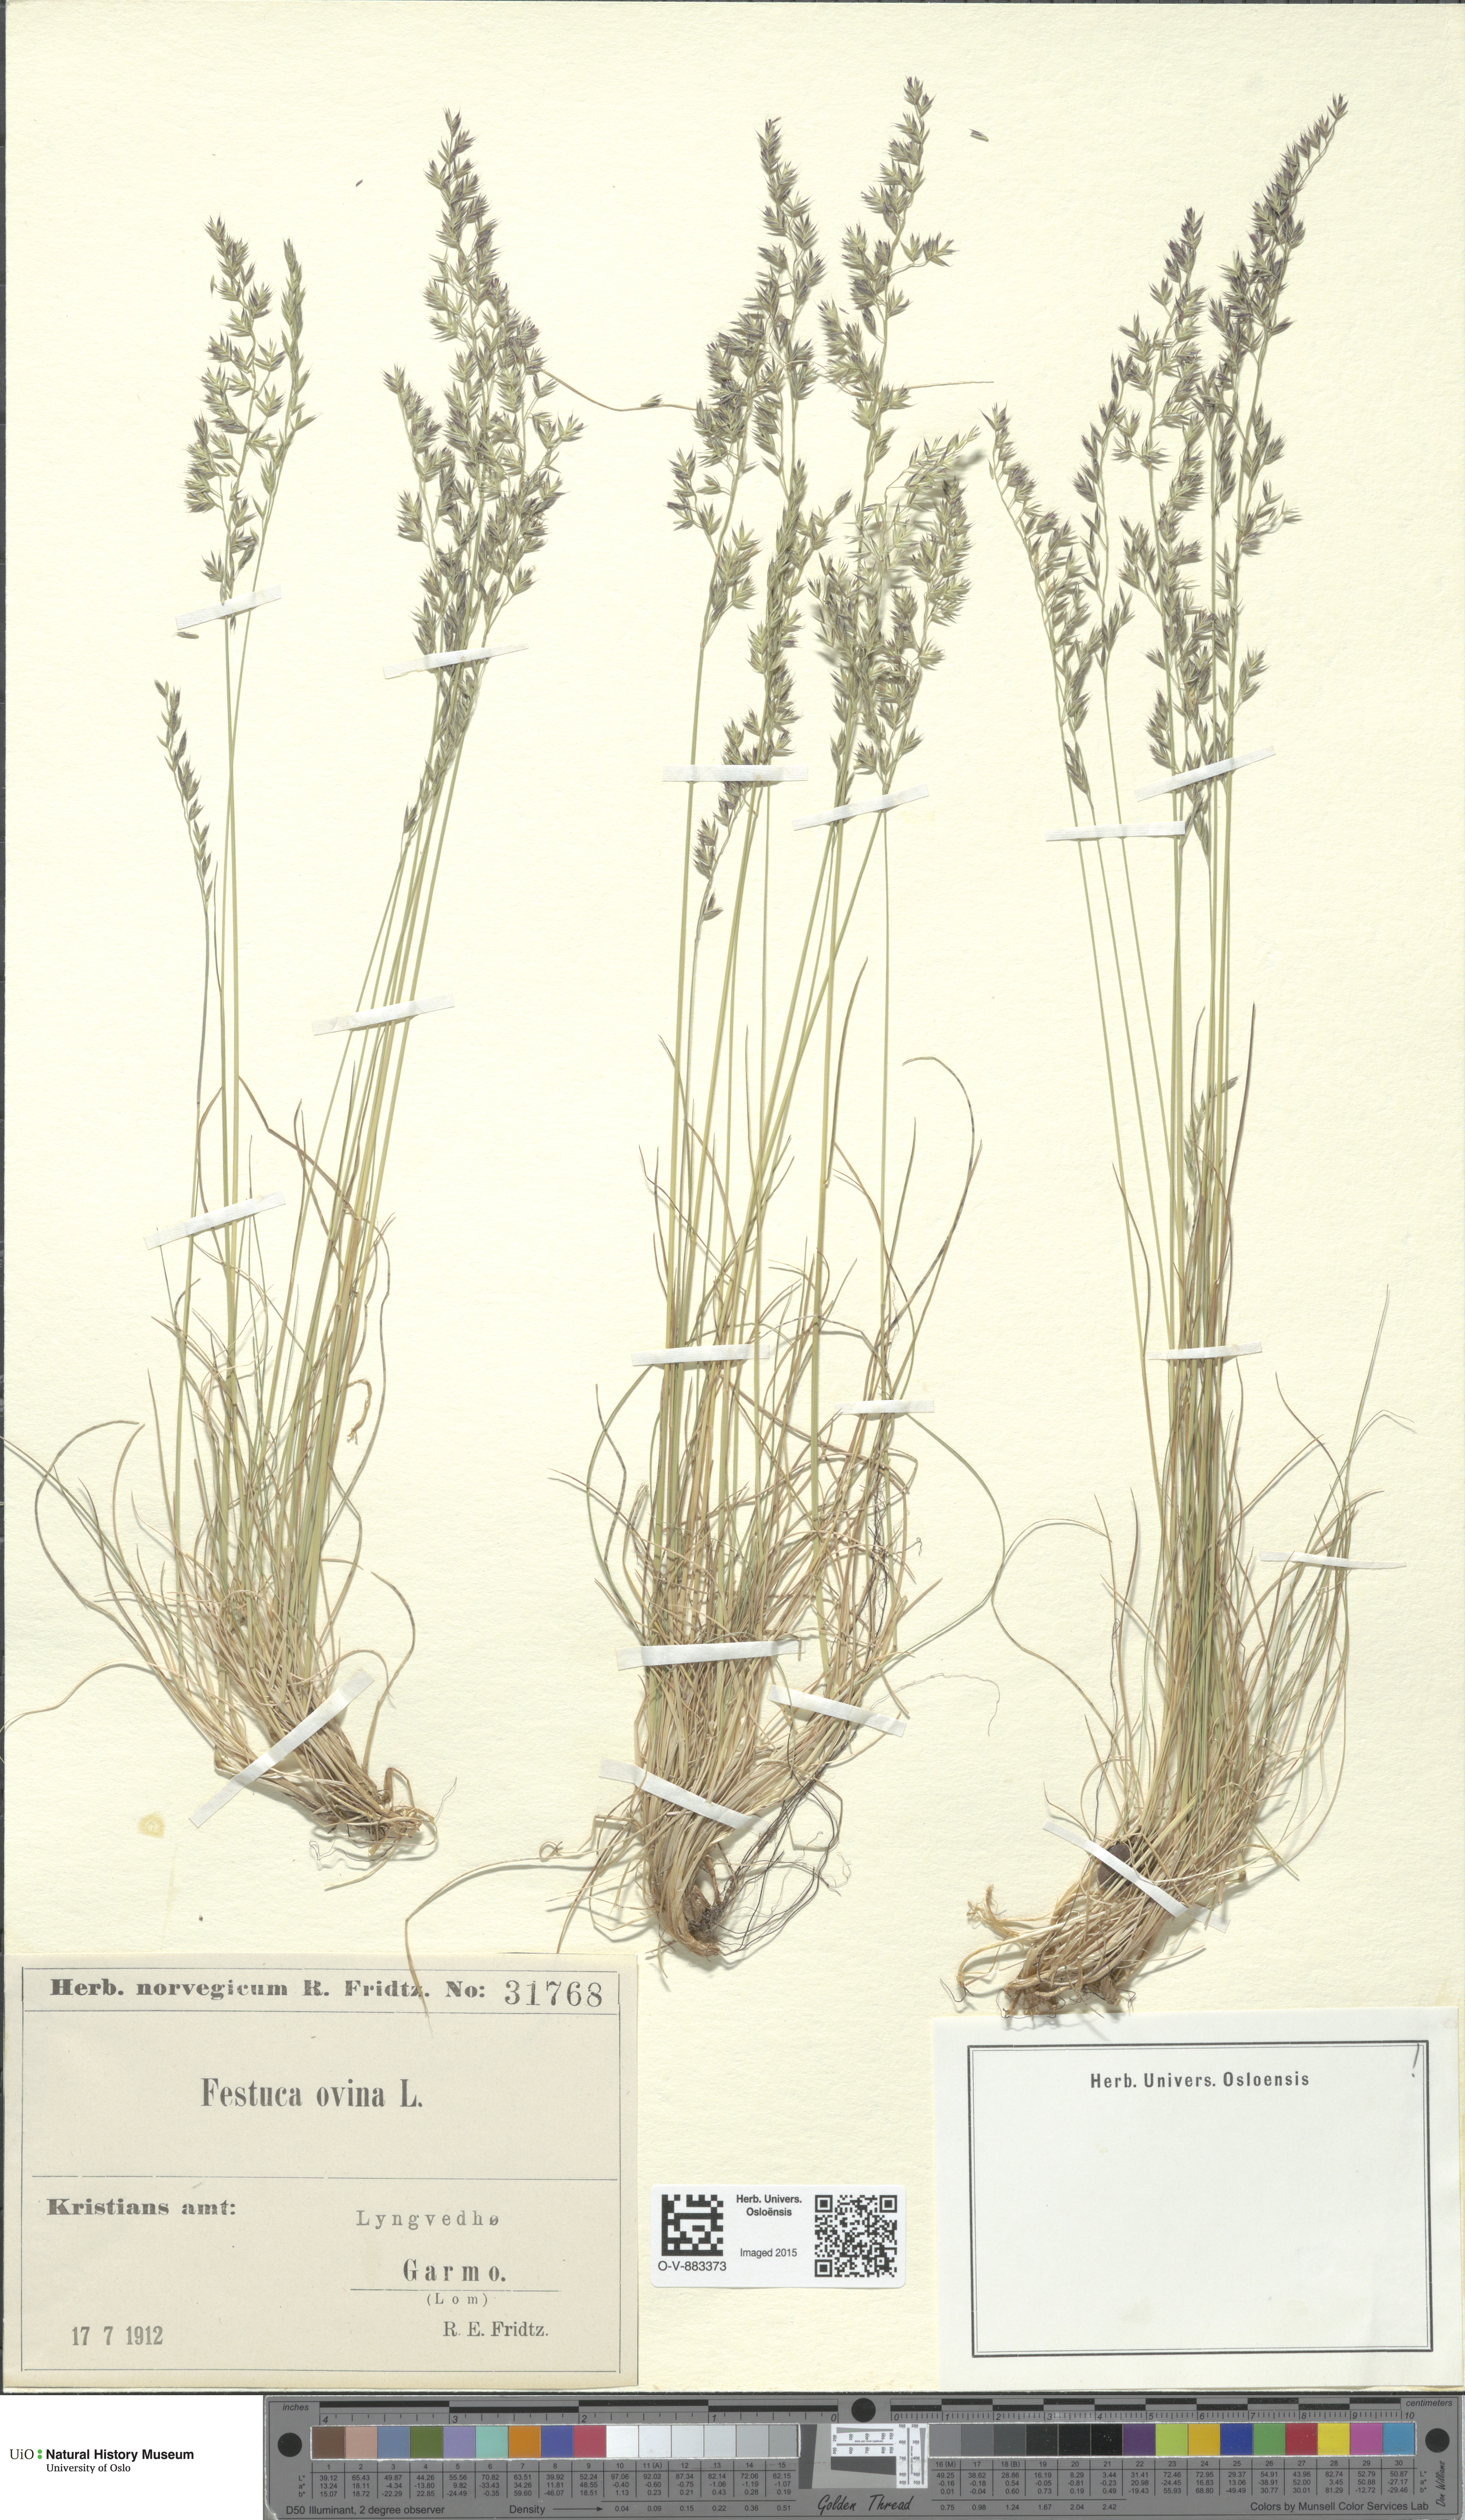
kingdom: Plantae
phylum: Tracheophyta
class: Liliopsida
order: Poales
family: Poaceae
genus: Festuca
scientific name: Festuca ovina
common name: Sheep fescue
